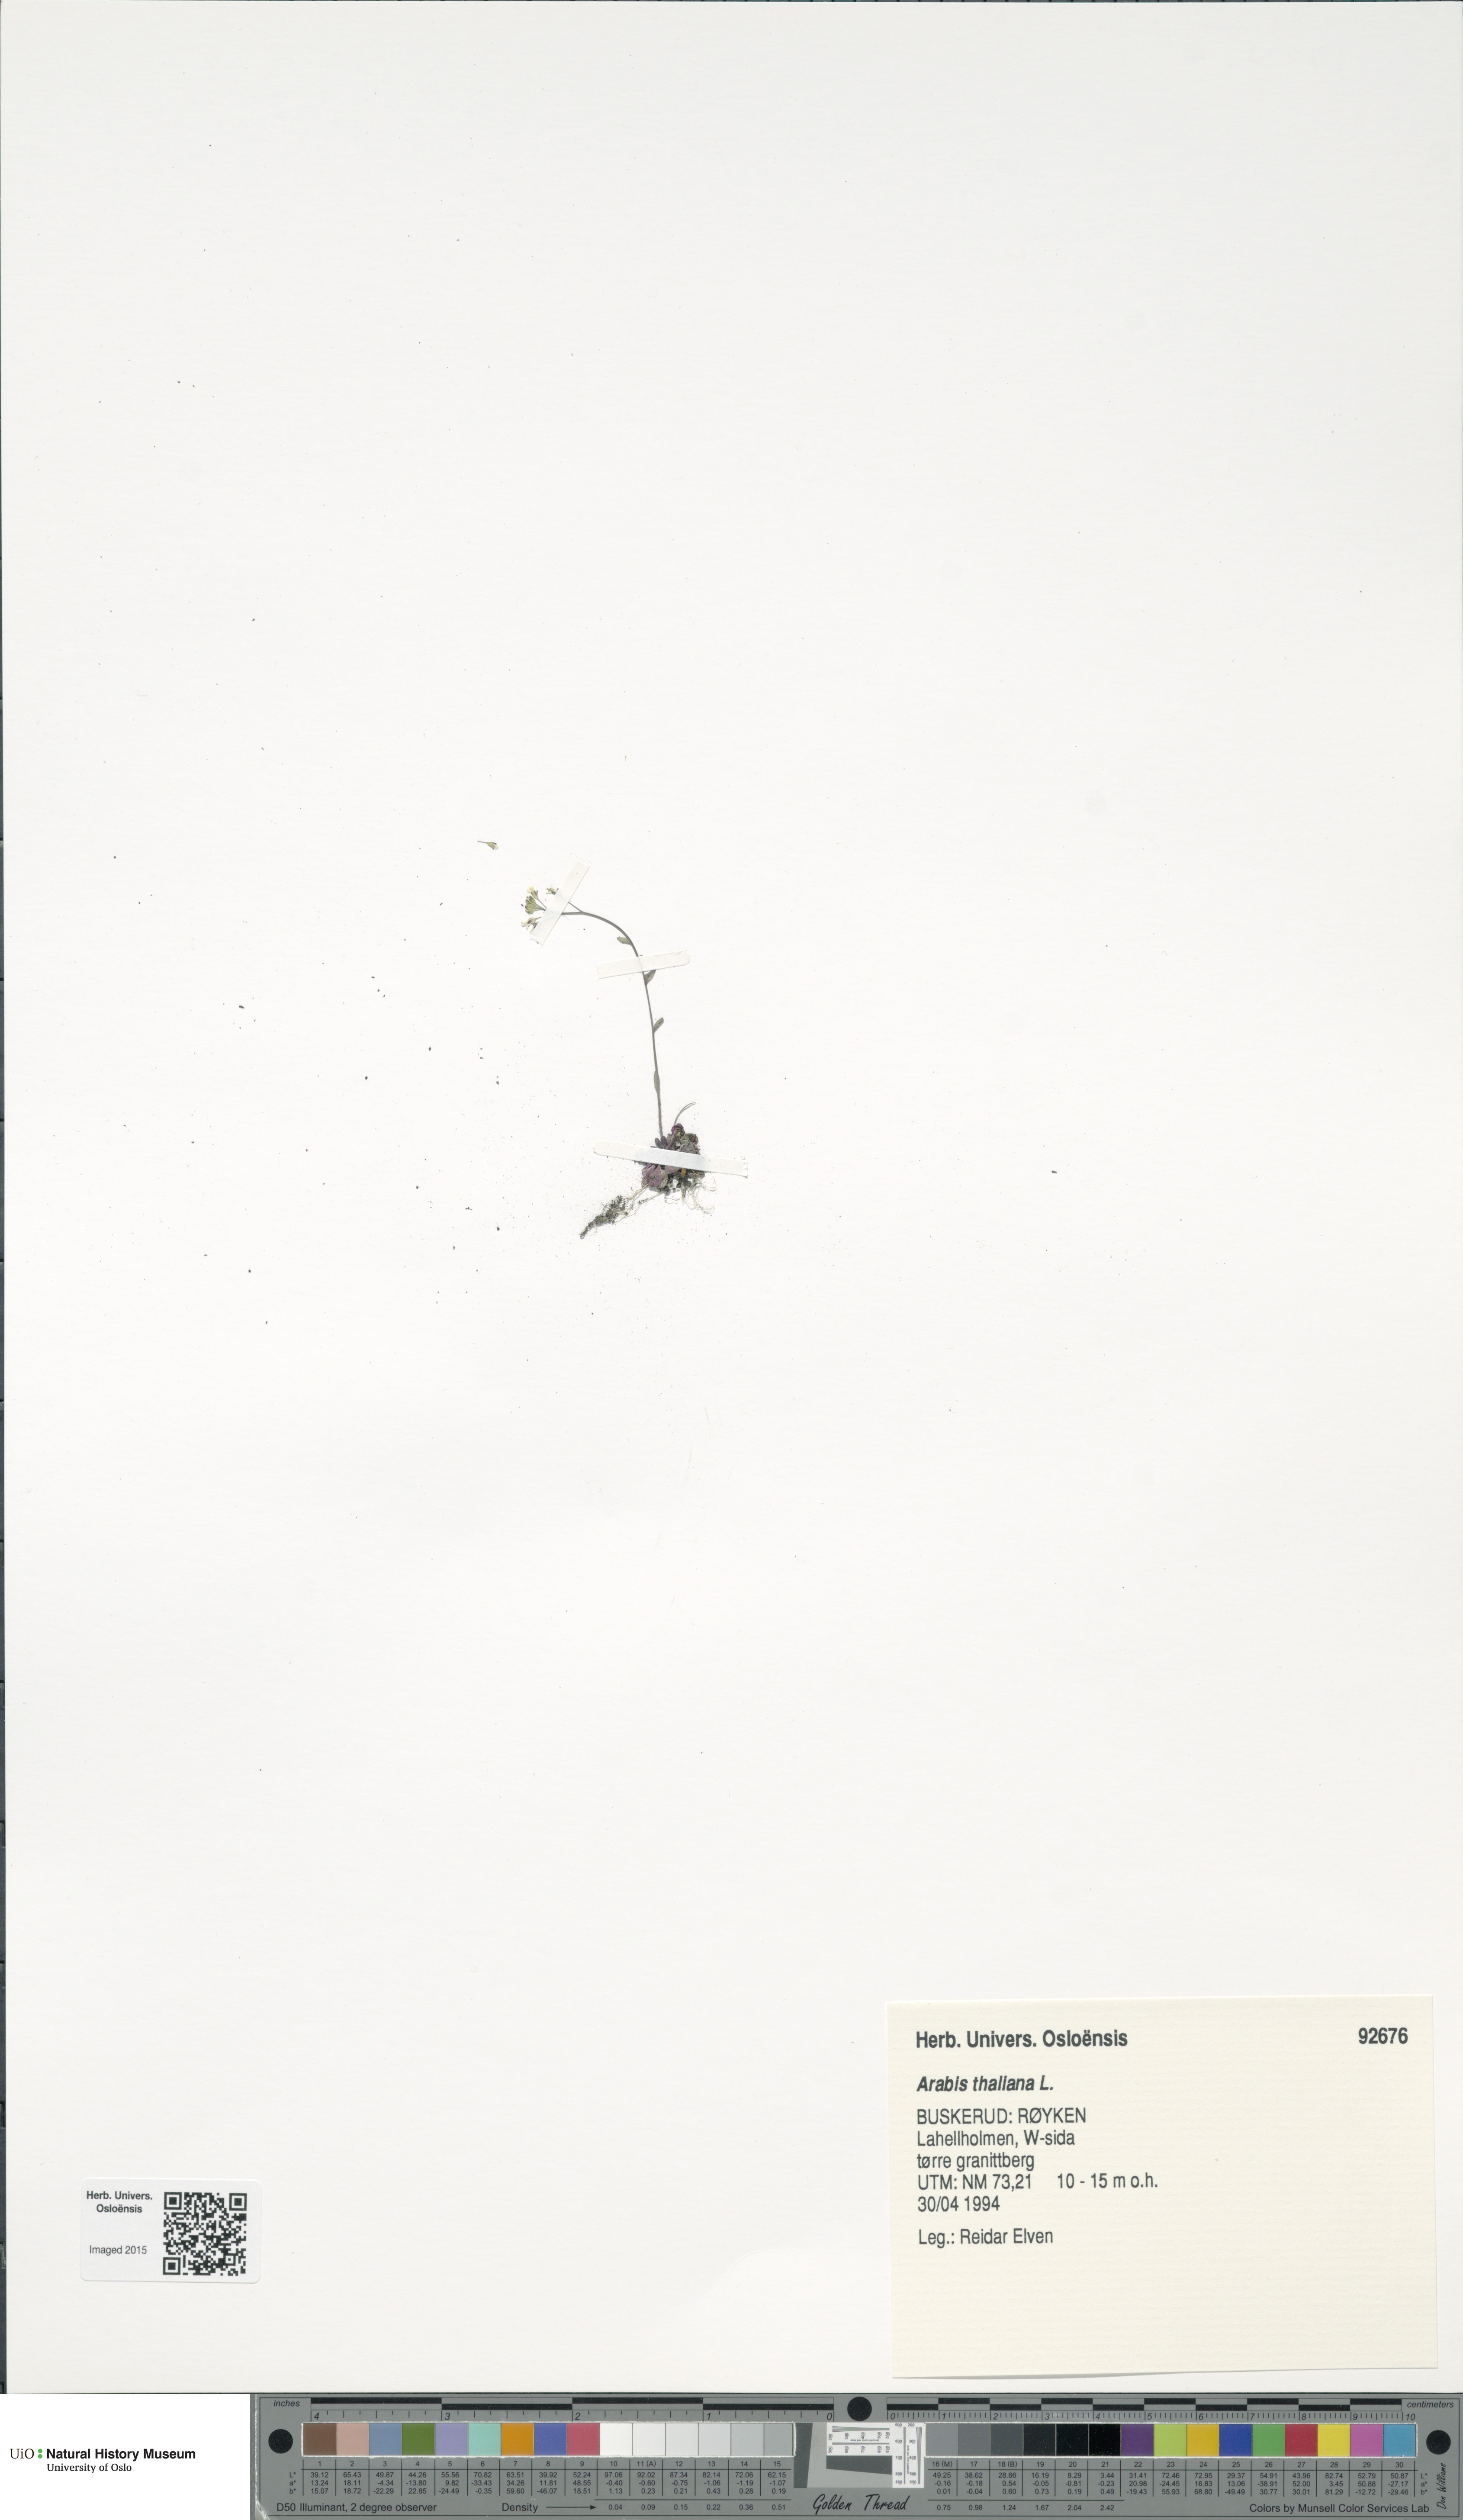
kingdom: Plantae
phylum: Tracheophyta
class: Magnoliopsida
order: Brassicales
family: Brassicaceae
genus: Arabidopsis
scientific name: Arabidopsis thaliana
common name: Thale cress
